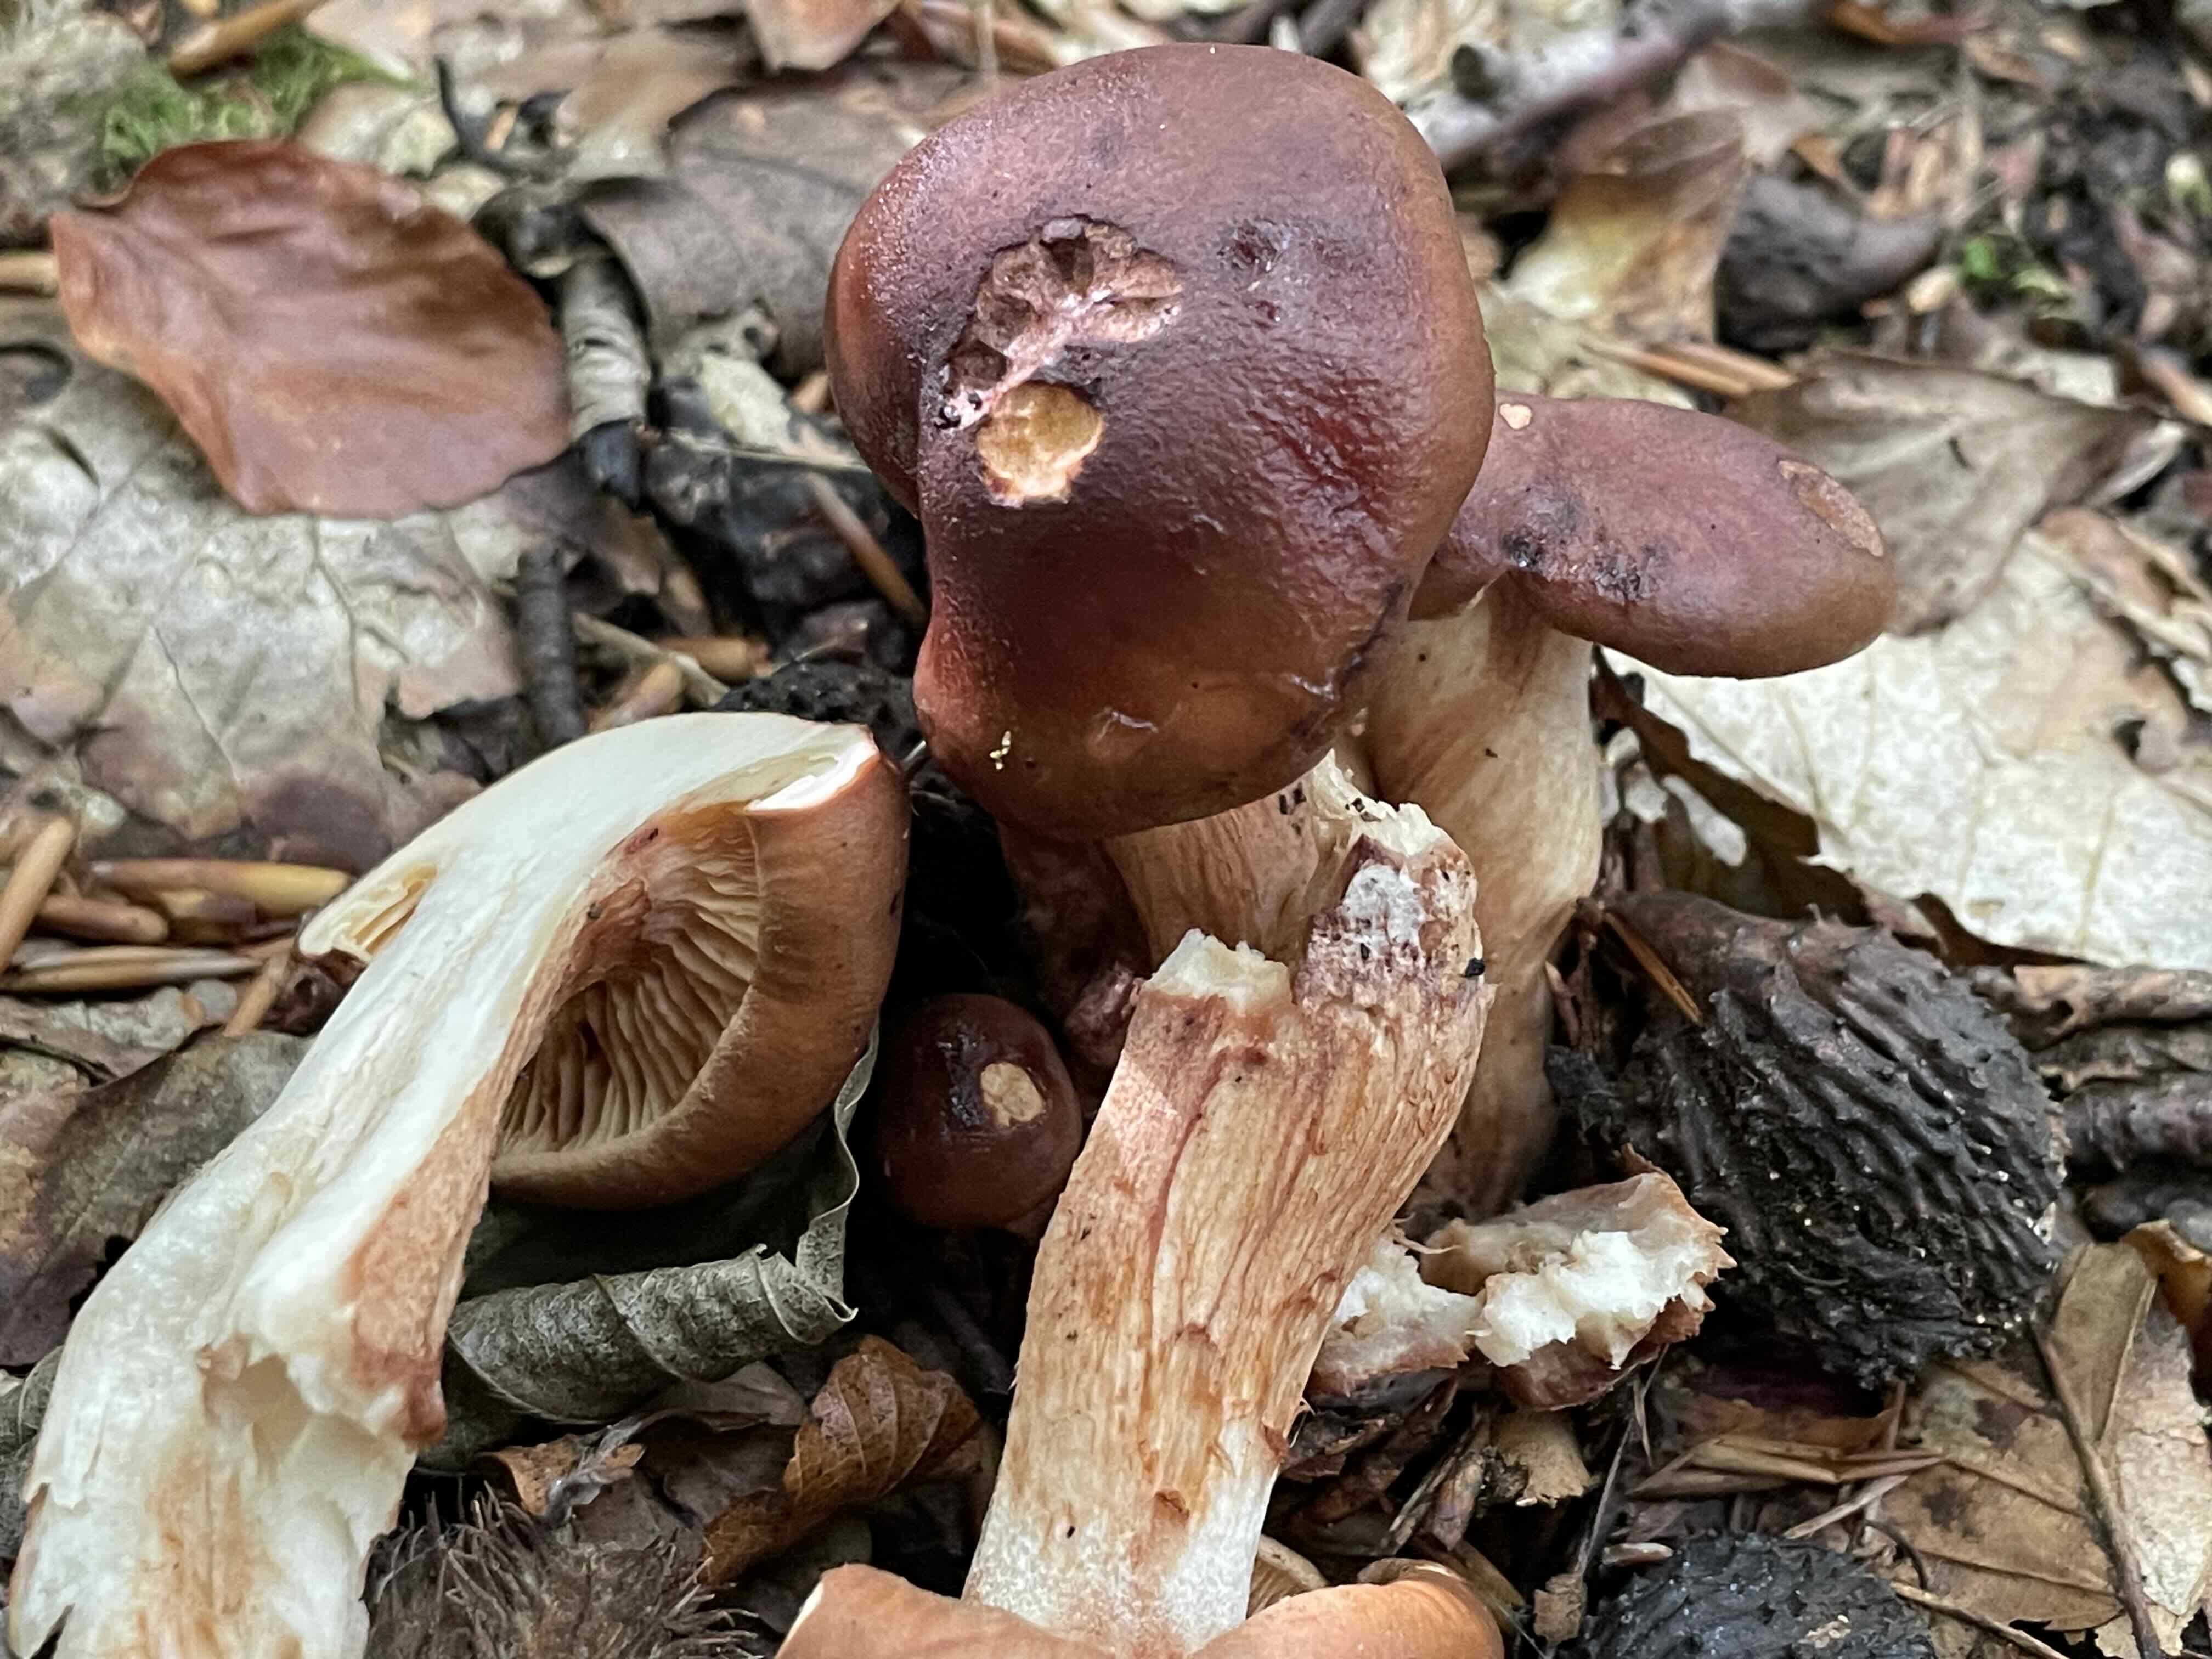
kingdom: Fungi
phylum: Basidiomycota
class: Agaricomycetes
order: Agaricales
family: Tricholomataceae
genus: Tricholoma
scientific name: Tricholoma ustale
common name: sveden ridderhat
